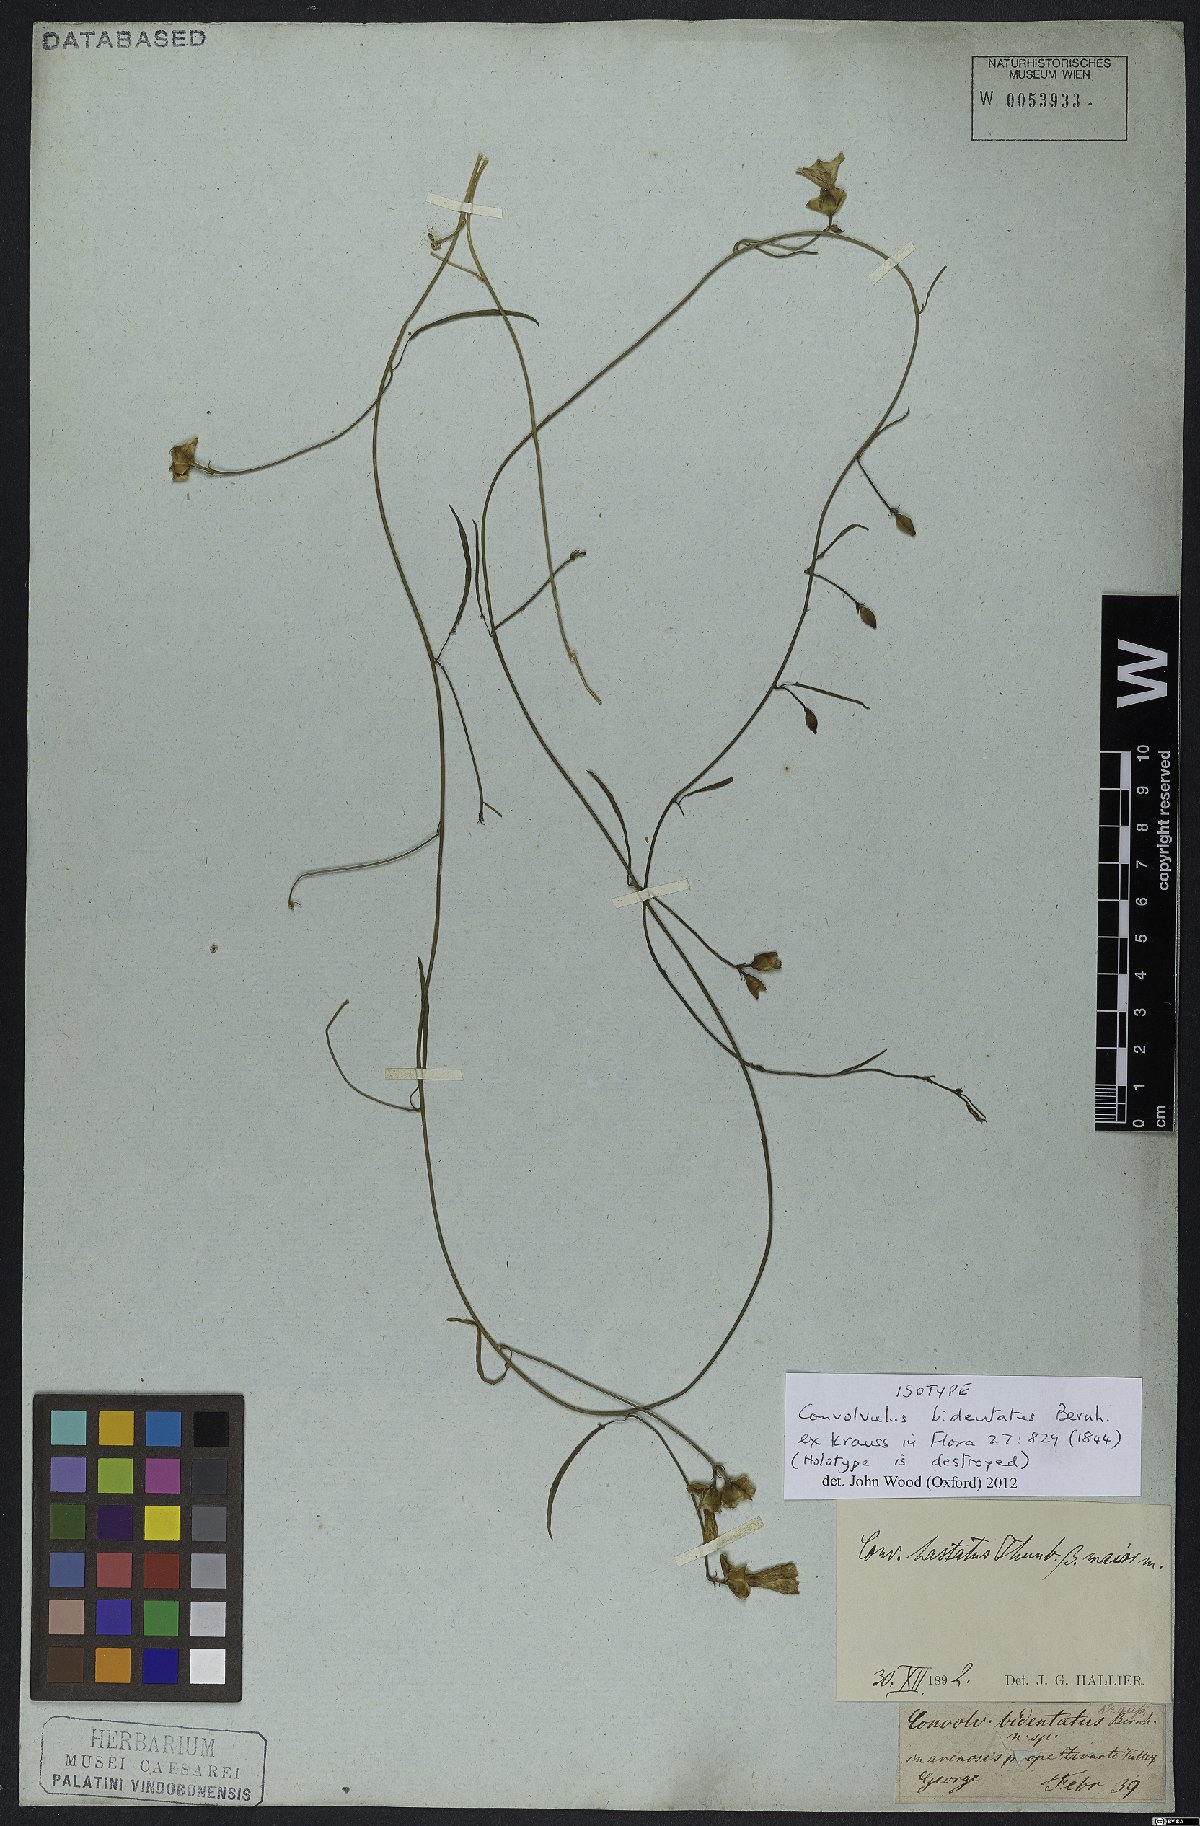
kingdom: Plantae
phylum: Tracheophyta
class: Magnoliopsida
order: Solanales
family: Convolvulaceae
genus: Convolvulus
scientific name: Convolvulus bidentatus
